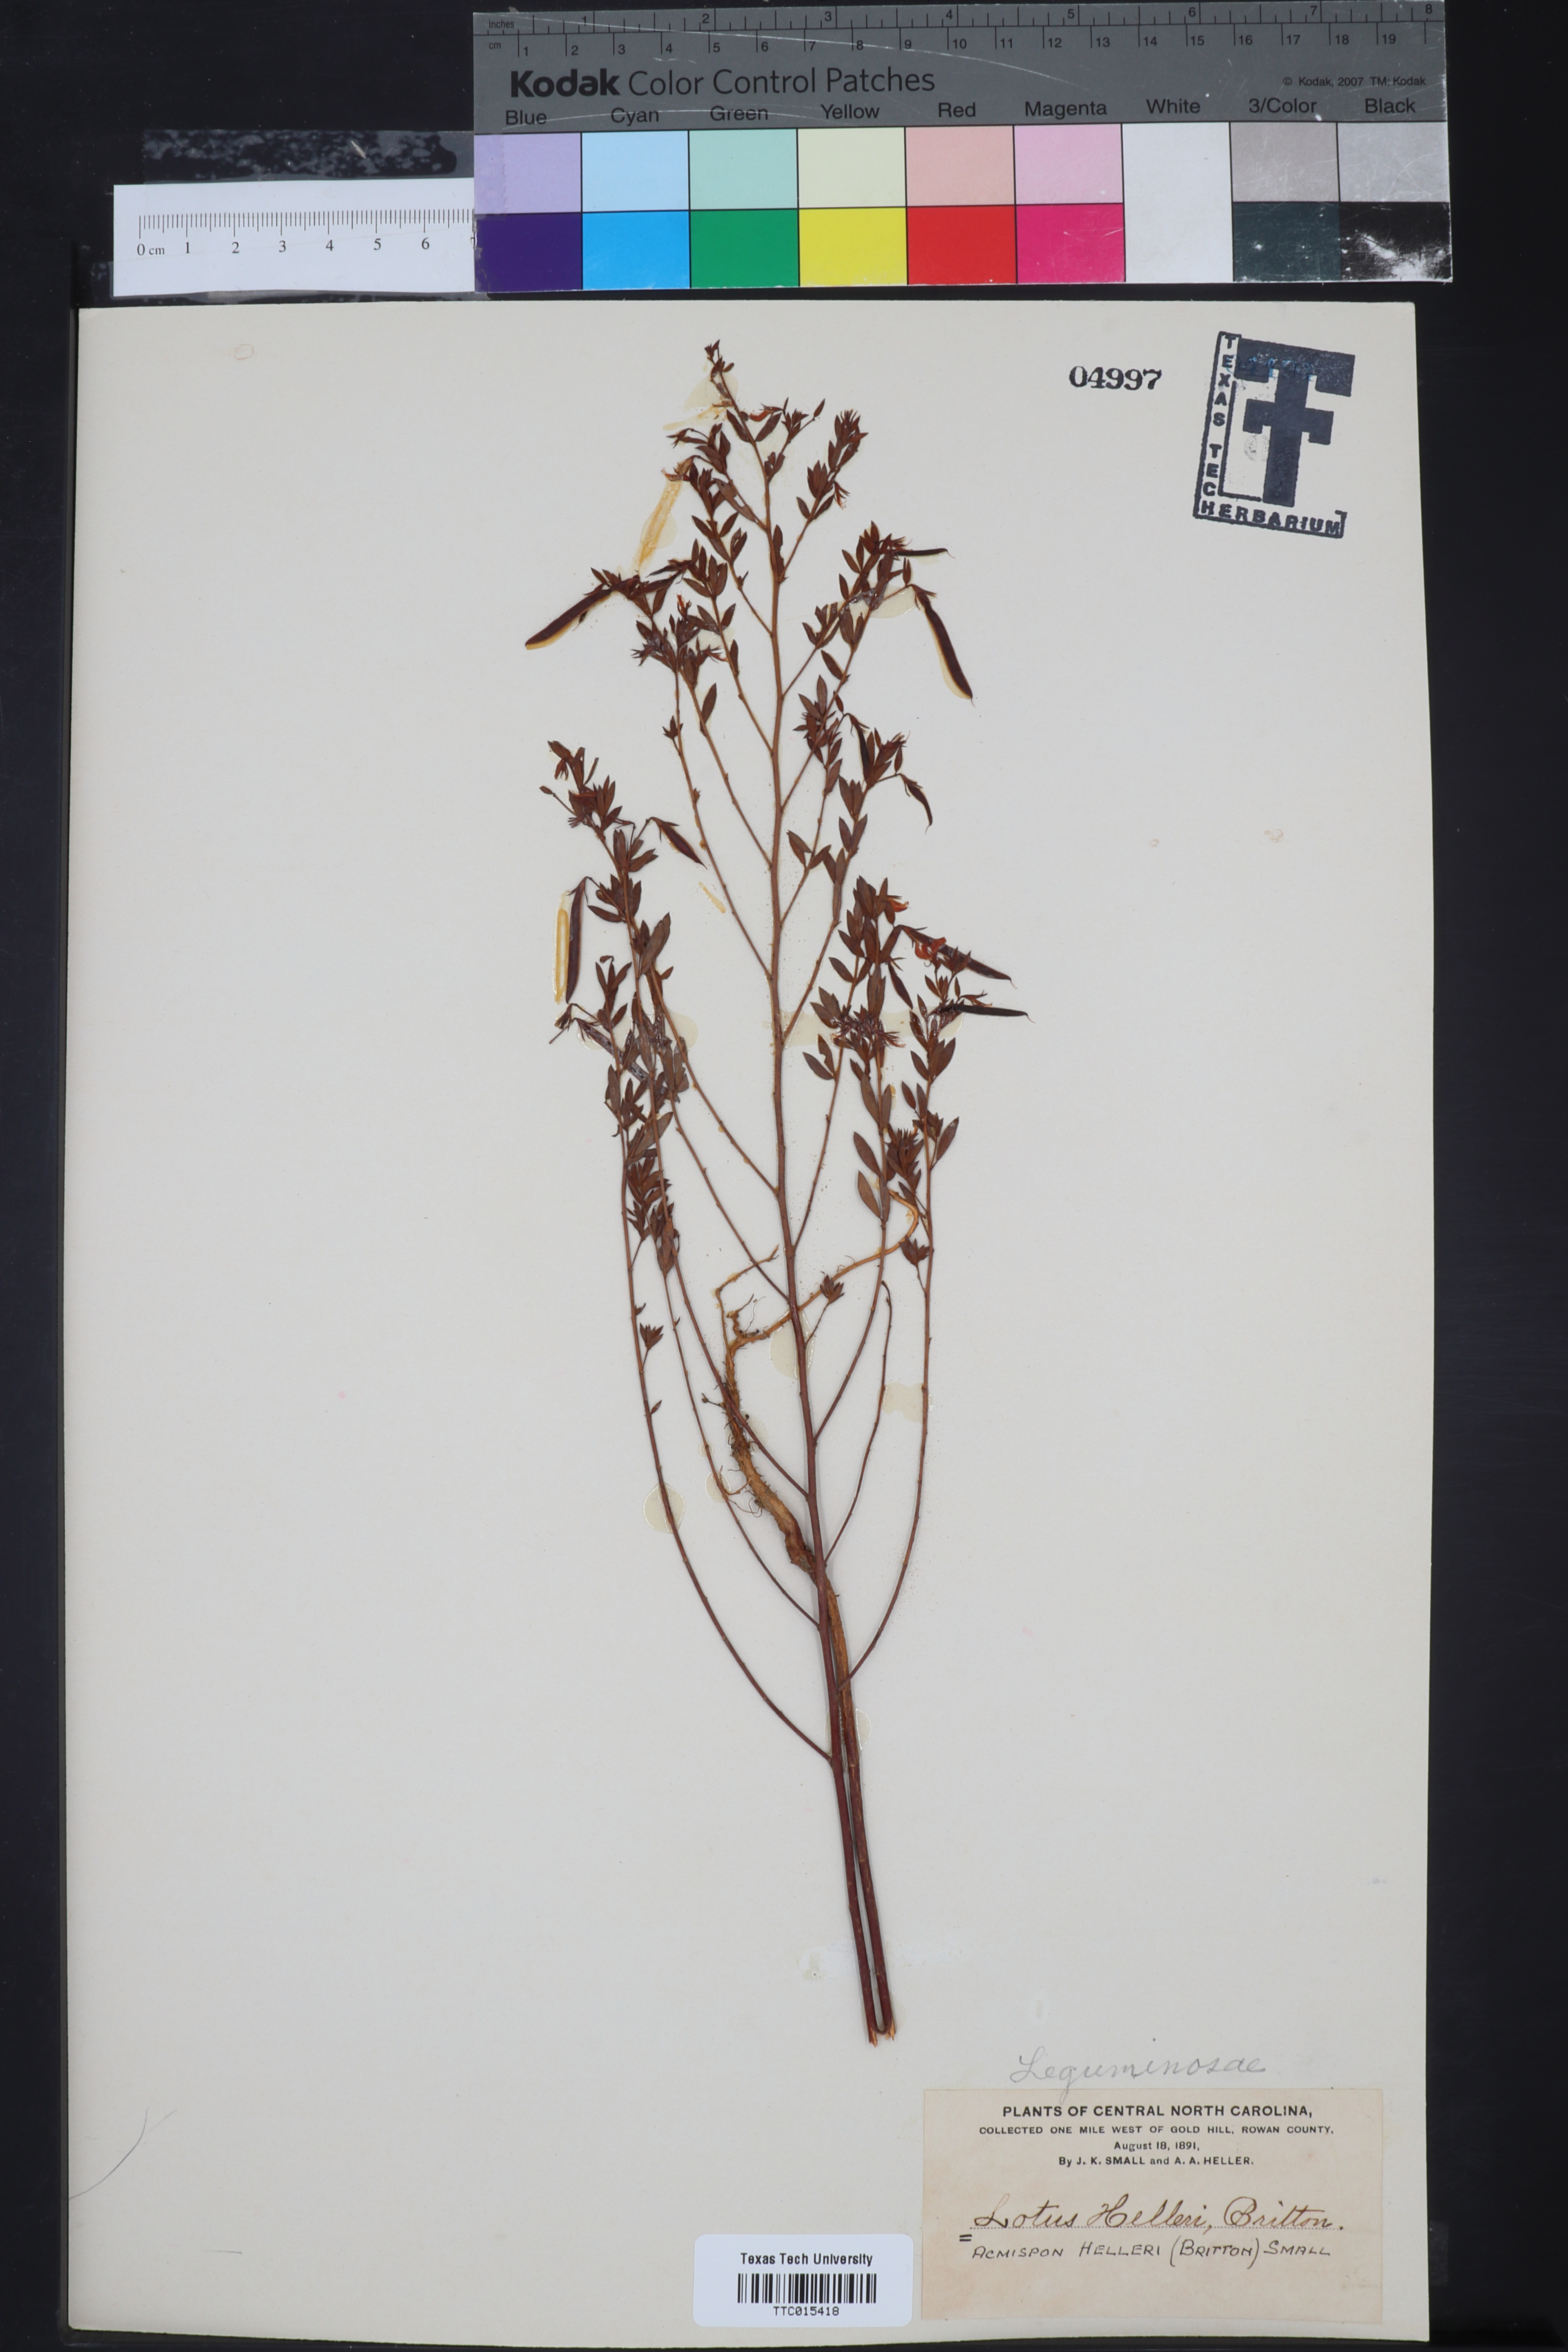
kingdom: Plantae
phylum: Tracheophyta
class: Magnoliopsida
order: Fabales
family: Fabaceae
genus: Acmispon
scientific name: Acmispon americanus
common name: American bird's-foot trefoil
